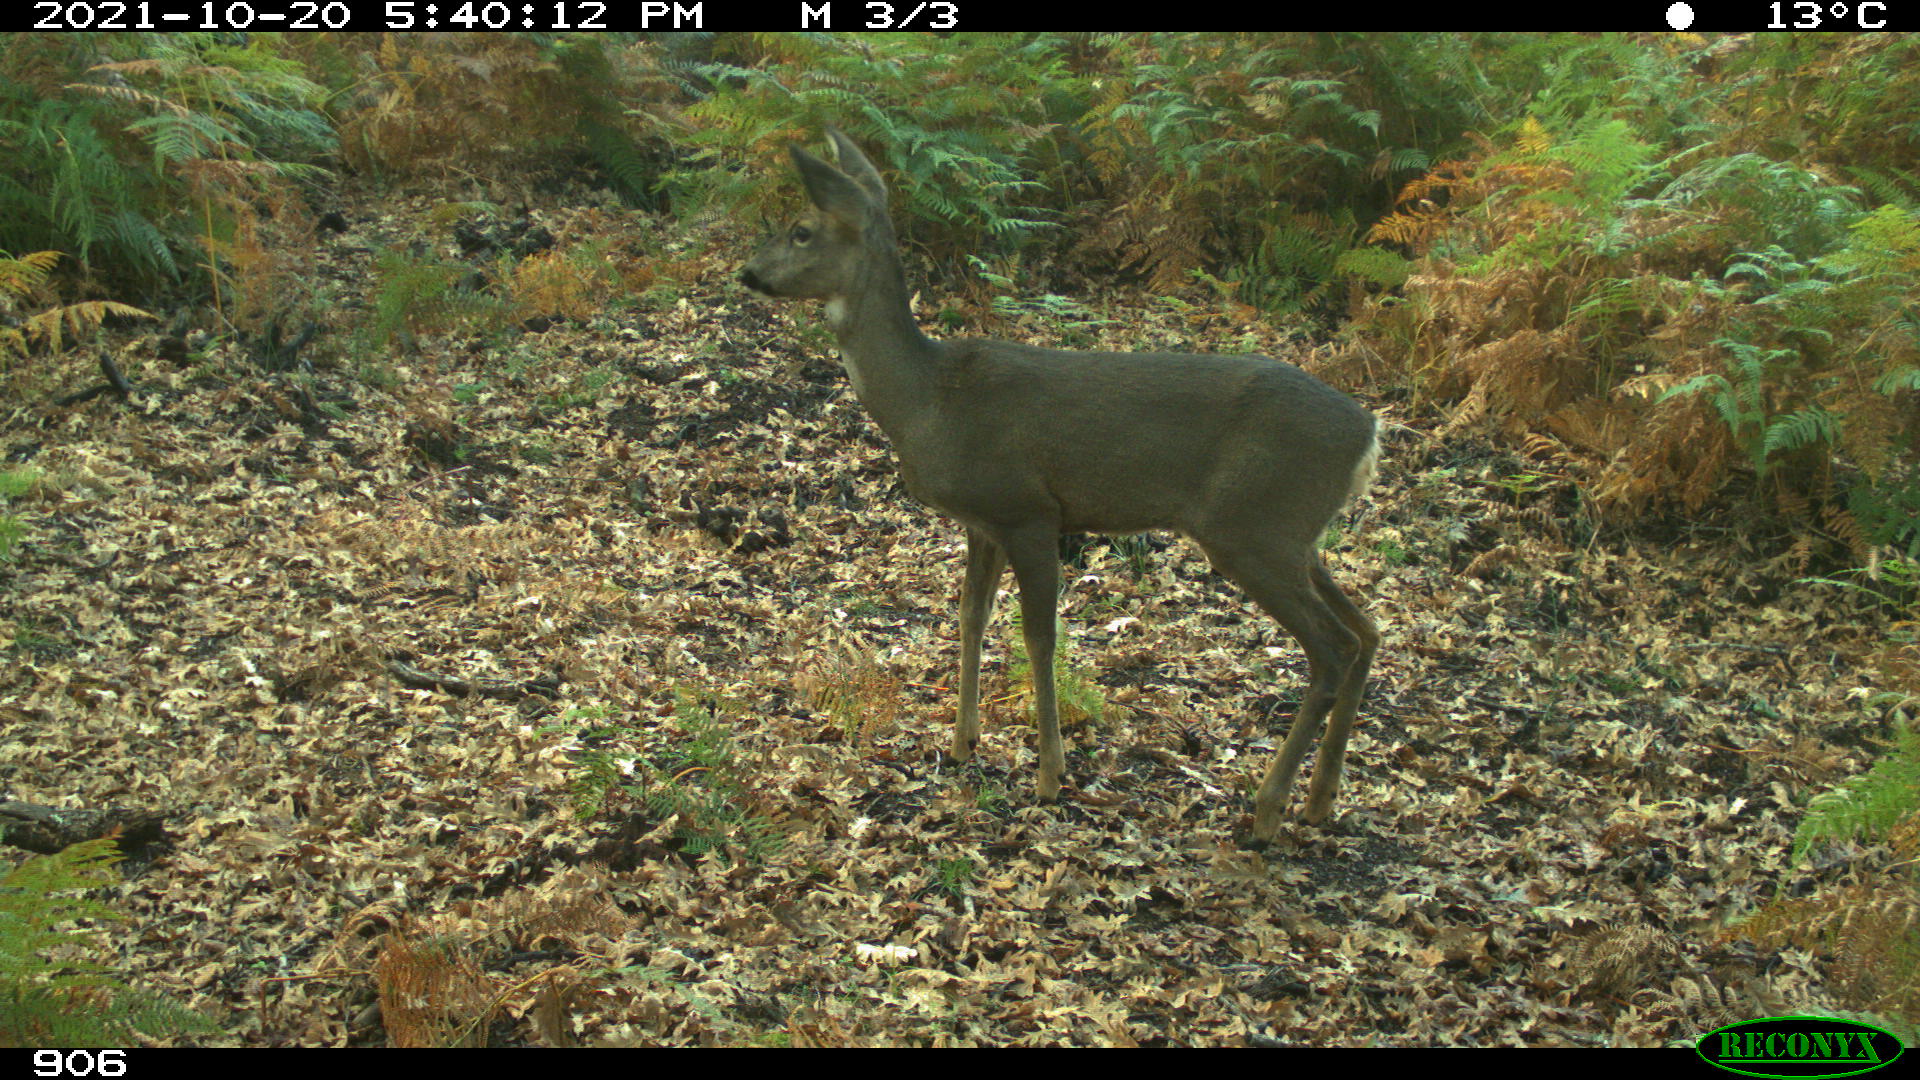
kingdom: Animalia
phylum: Chordata
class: Mammalia
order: Artiodactyla
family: Cervidae
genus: Capreolus
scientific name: Capreolus capreolus
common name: Western roe deer
